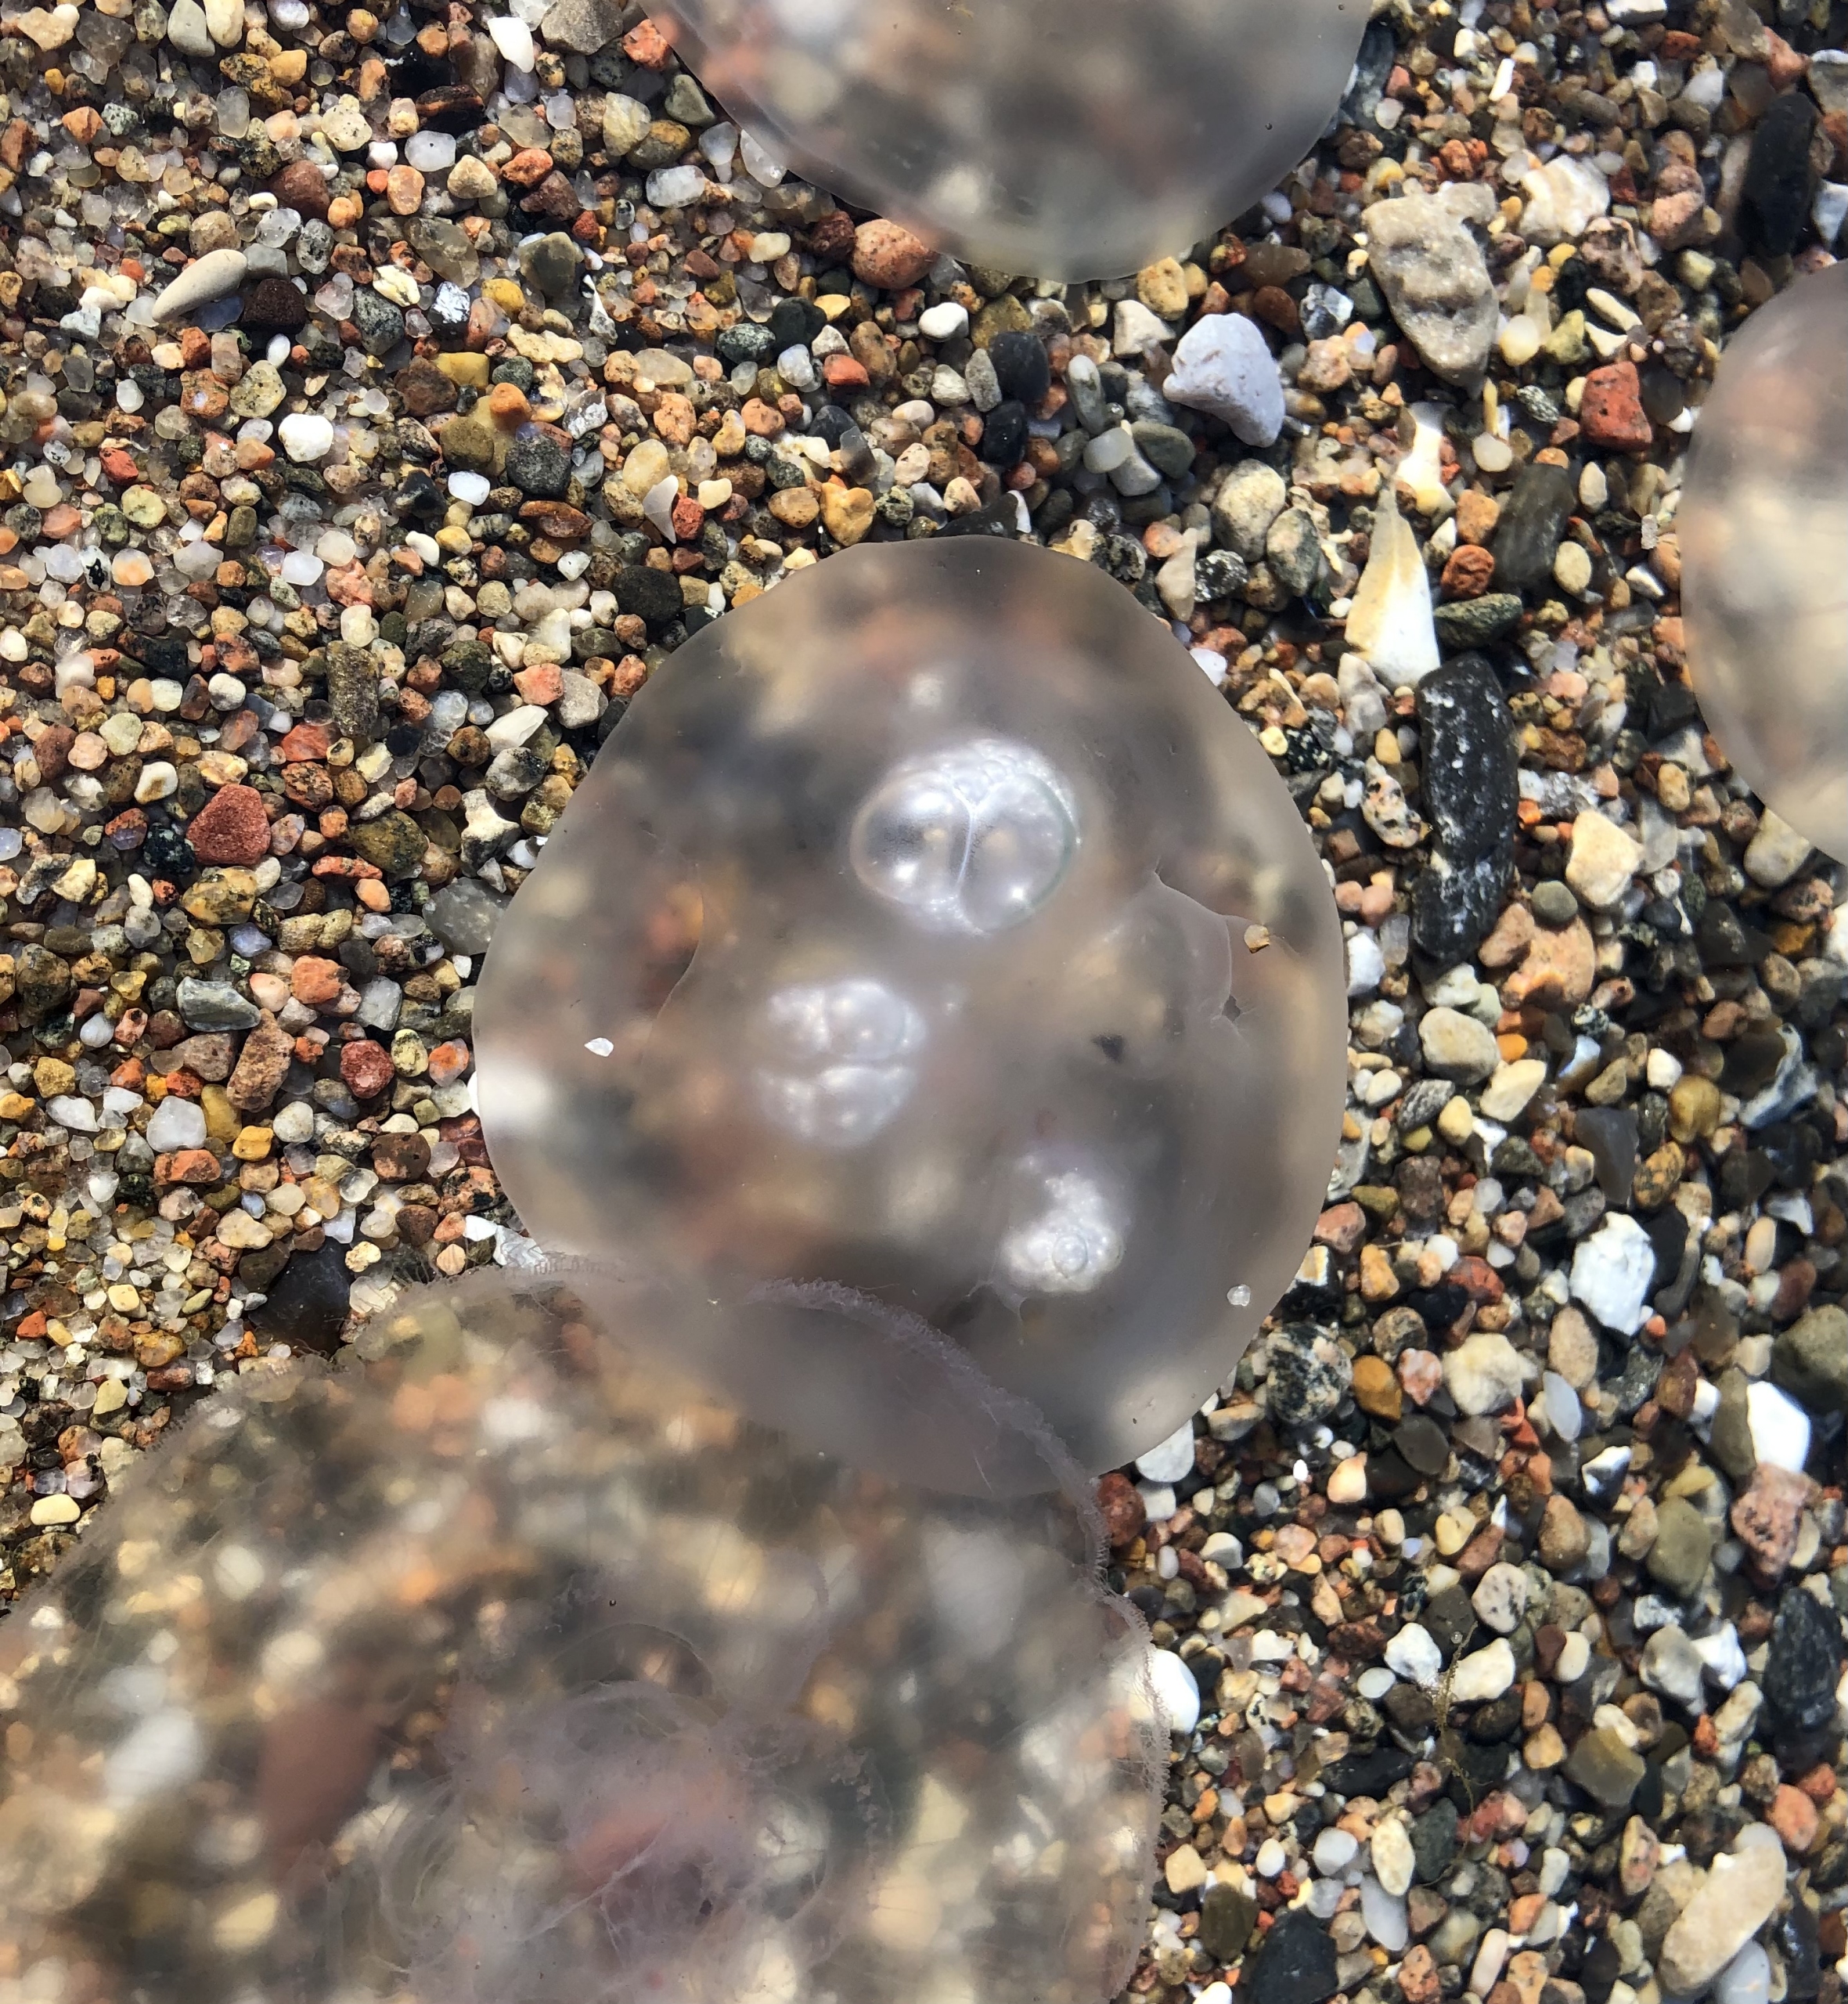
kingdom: Animalia
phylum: Cnidaria
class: Scyphozoa
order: Semaeostomeae
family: Ulmaridae
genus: Aurelia
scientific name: Aurelia aurita
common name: Almindelig vandmand
